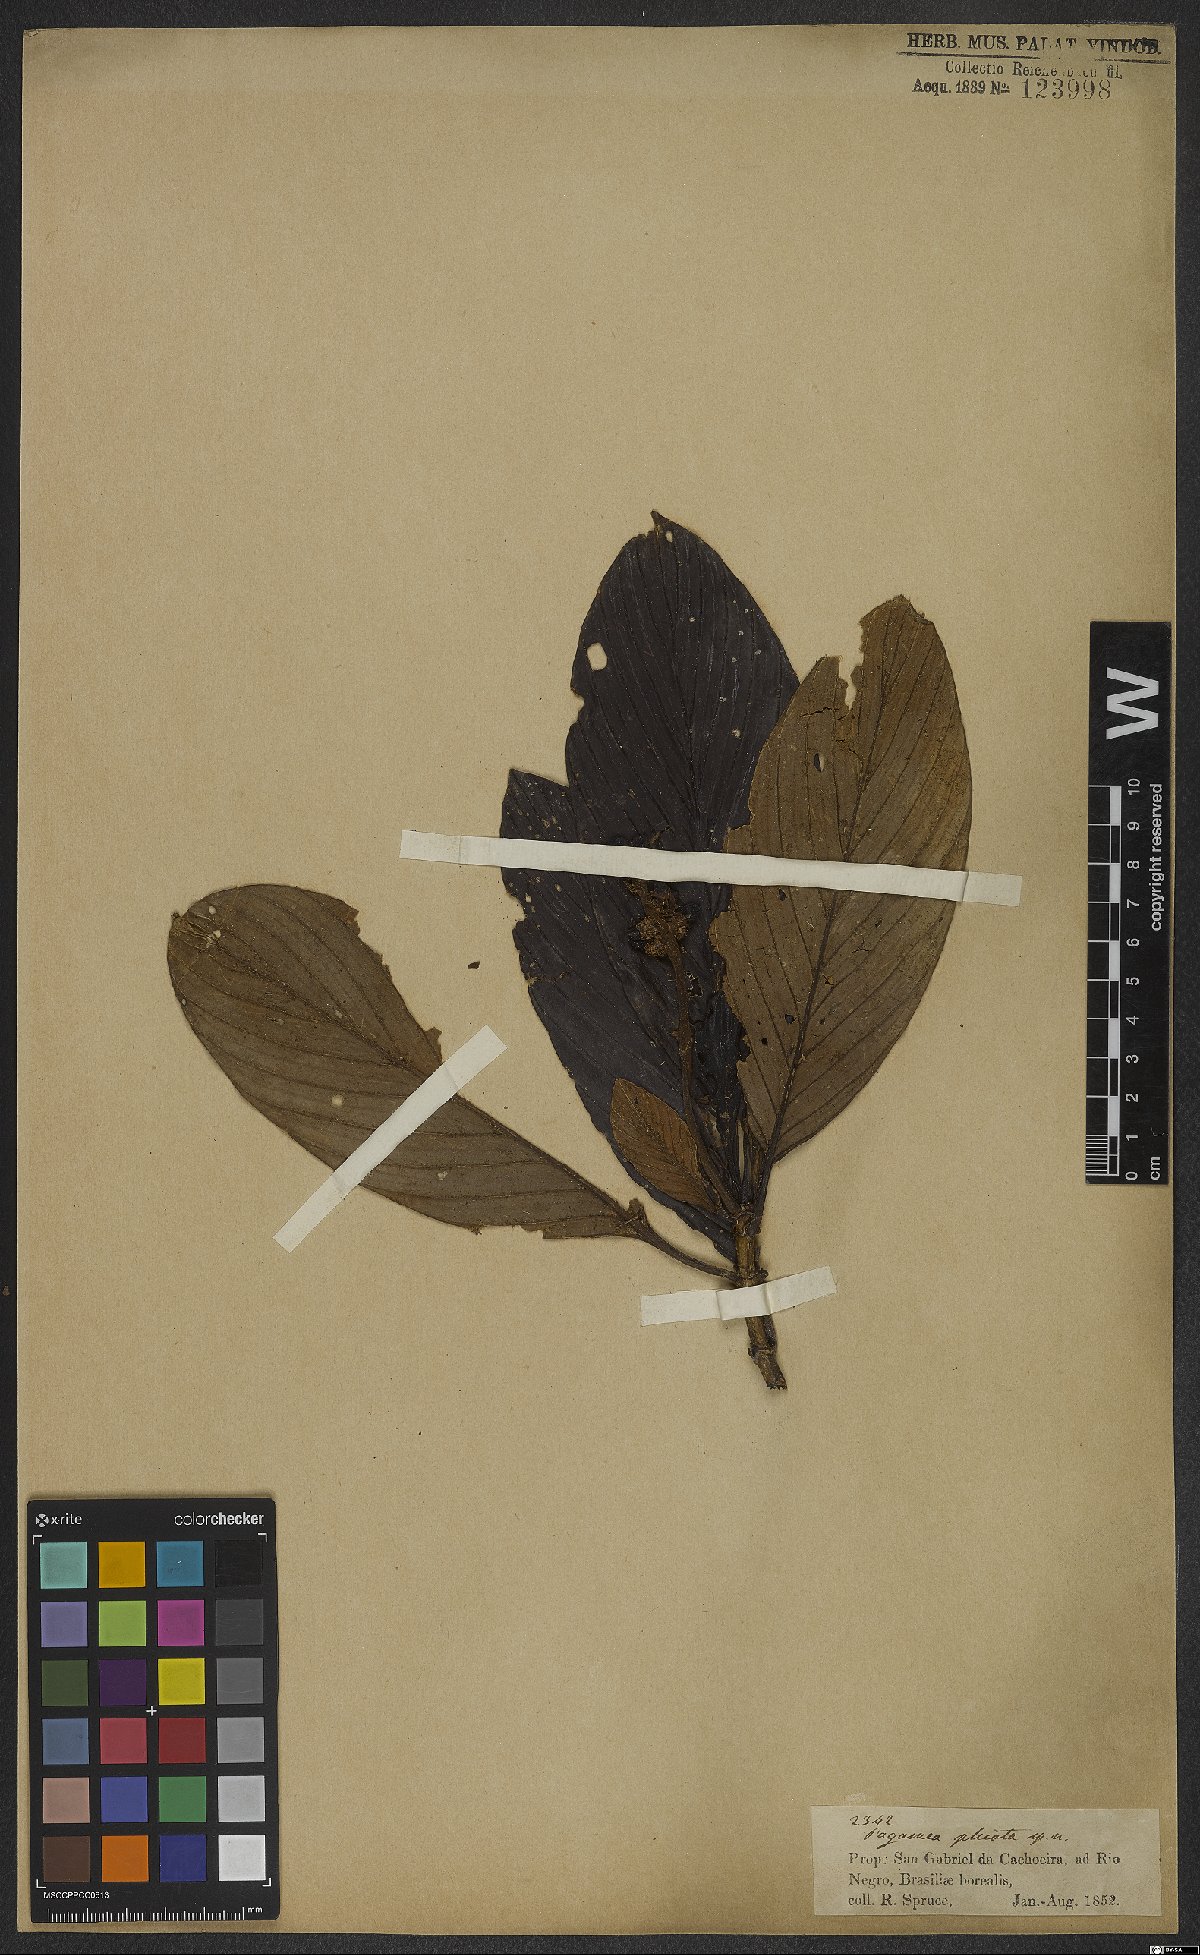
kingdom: Plantae
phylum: Tracheophyta
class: Magnoliopsida
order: Gentianales
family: Rubiaceae
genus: Pagamea
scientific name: Pagamea plicata
